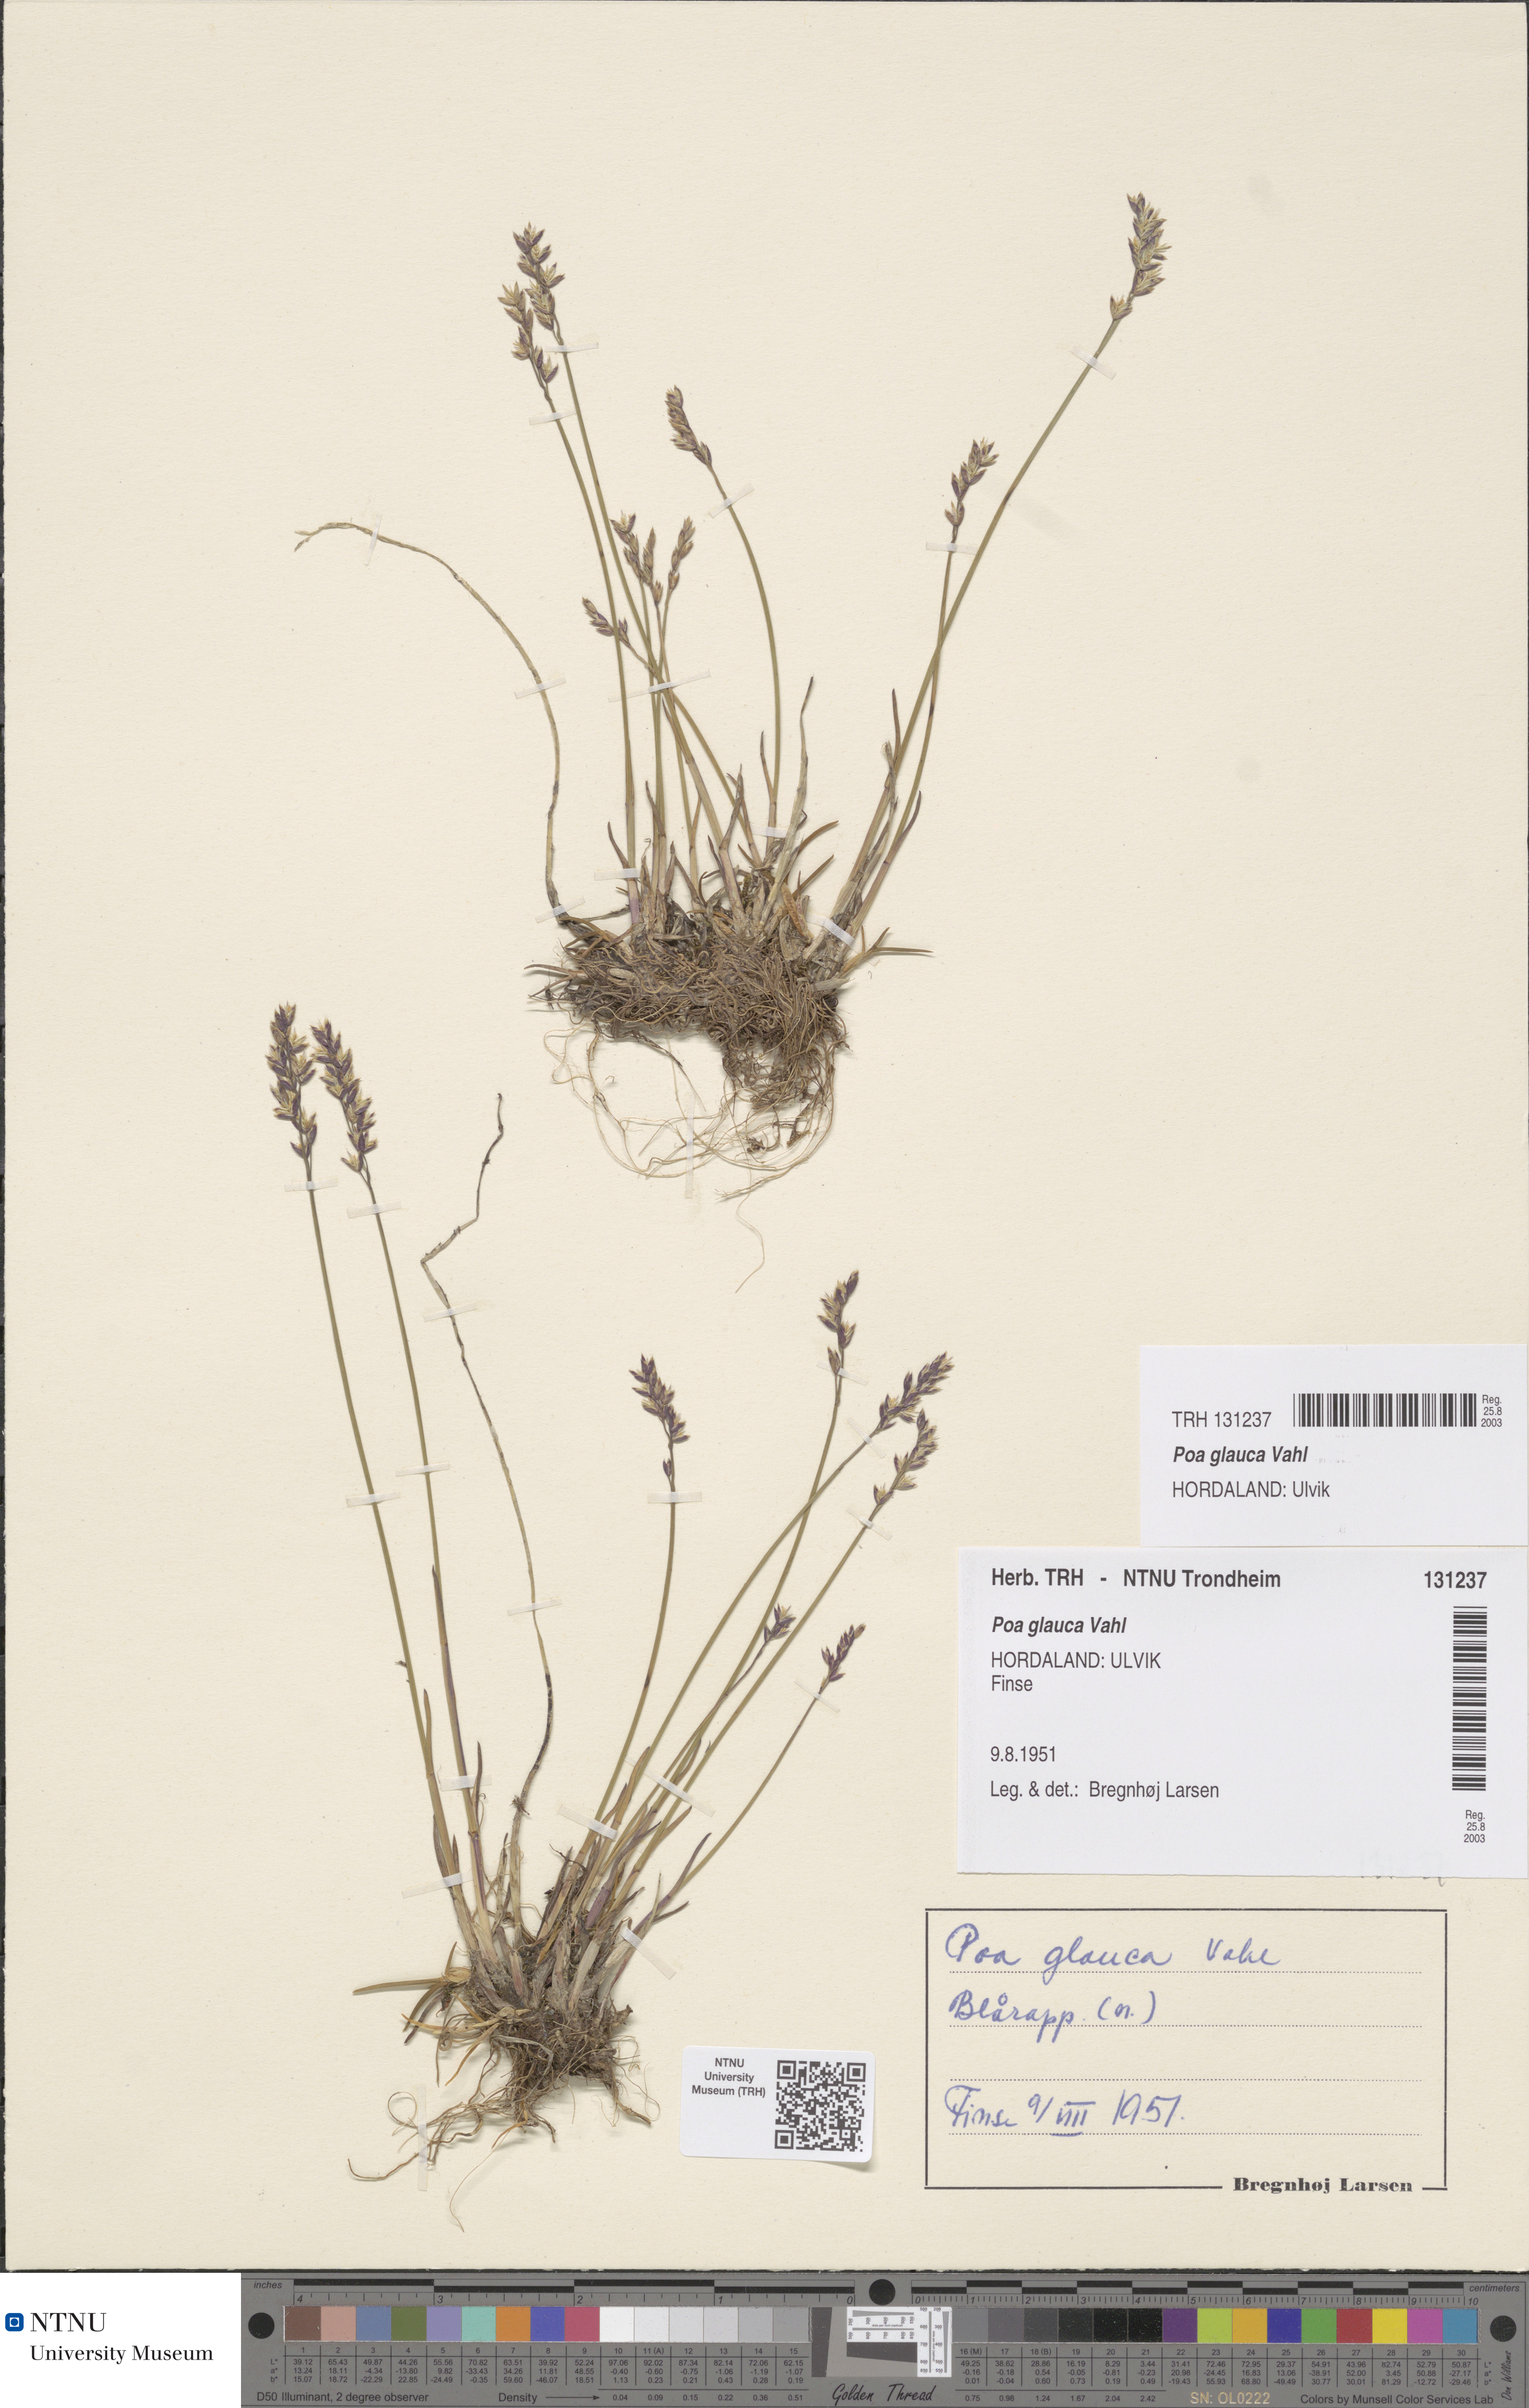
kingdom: Plantae
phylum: Tracheophyta
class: Liliopsida
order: Poales
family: Poaceae
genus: Poa
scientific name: Poa glauca
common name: Glaucous bluegrass
